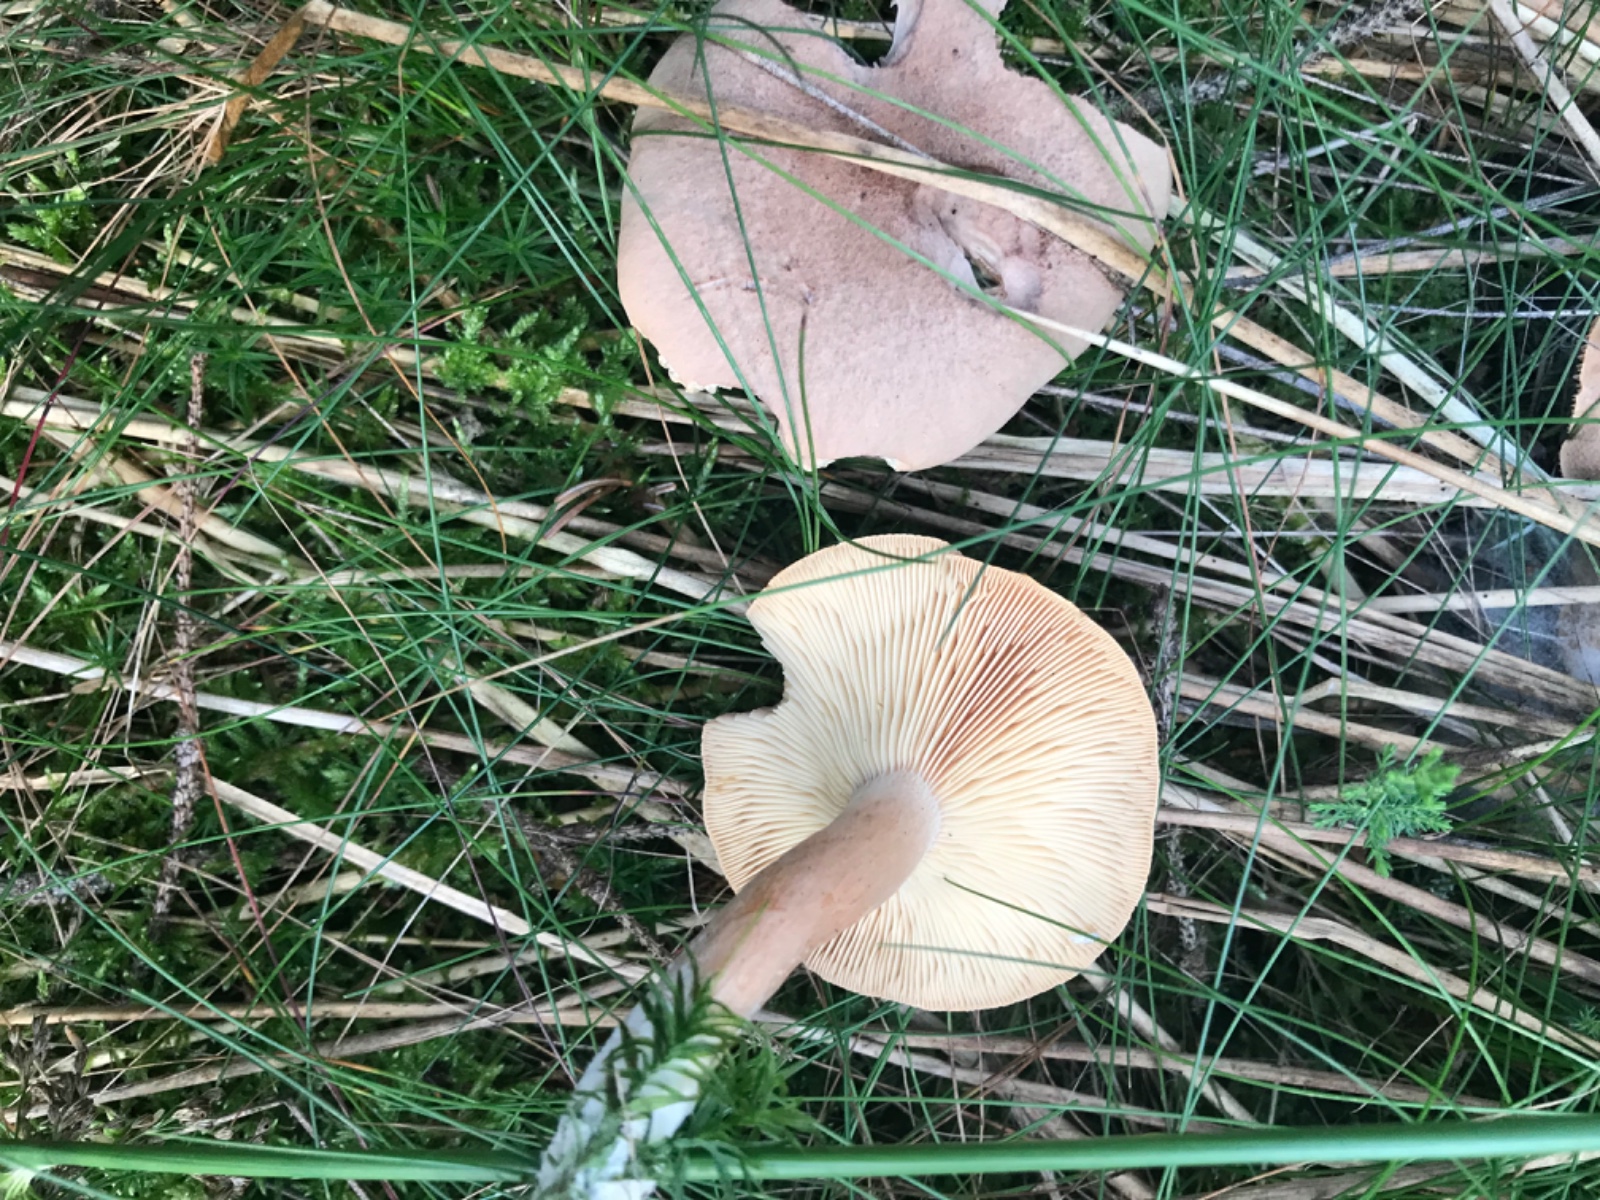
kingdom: Fungi
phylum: Basidiomycota
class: Agaricomycetes
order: Russulales
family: Russulaceae
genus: Lactarius
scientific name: Lactarius helvus
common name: mose-mælkehat
